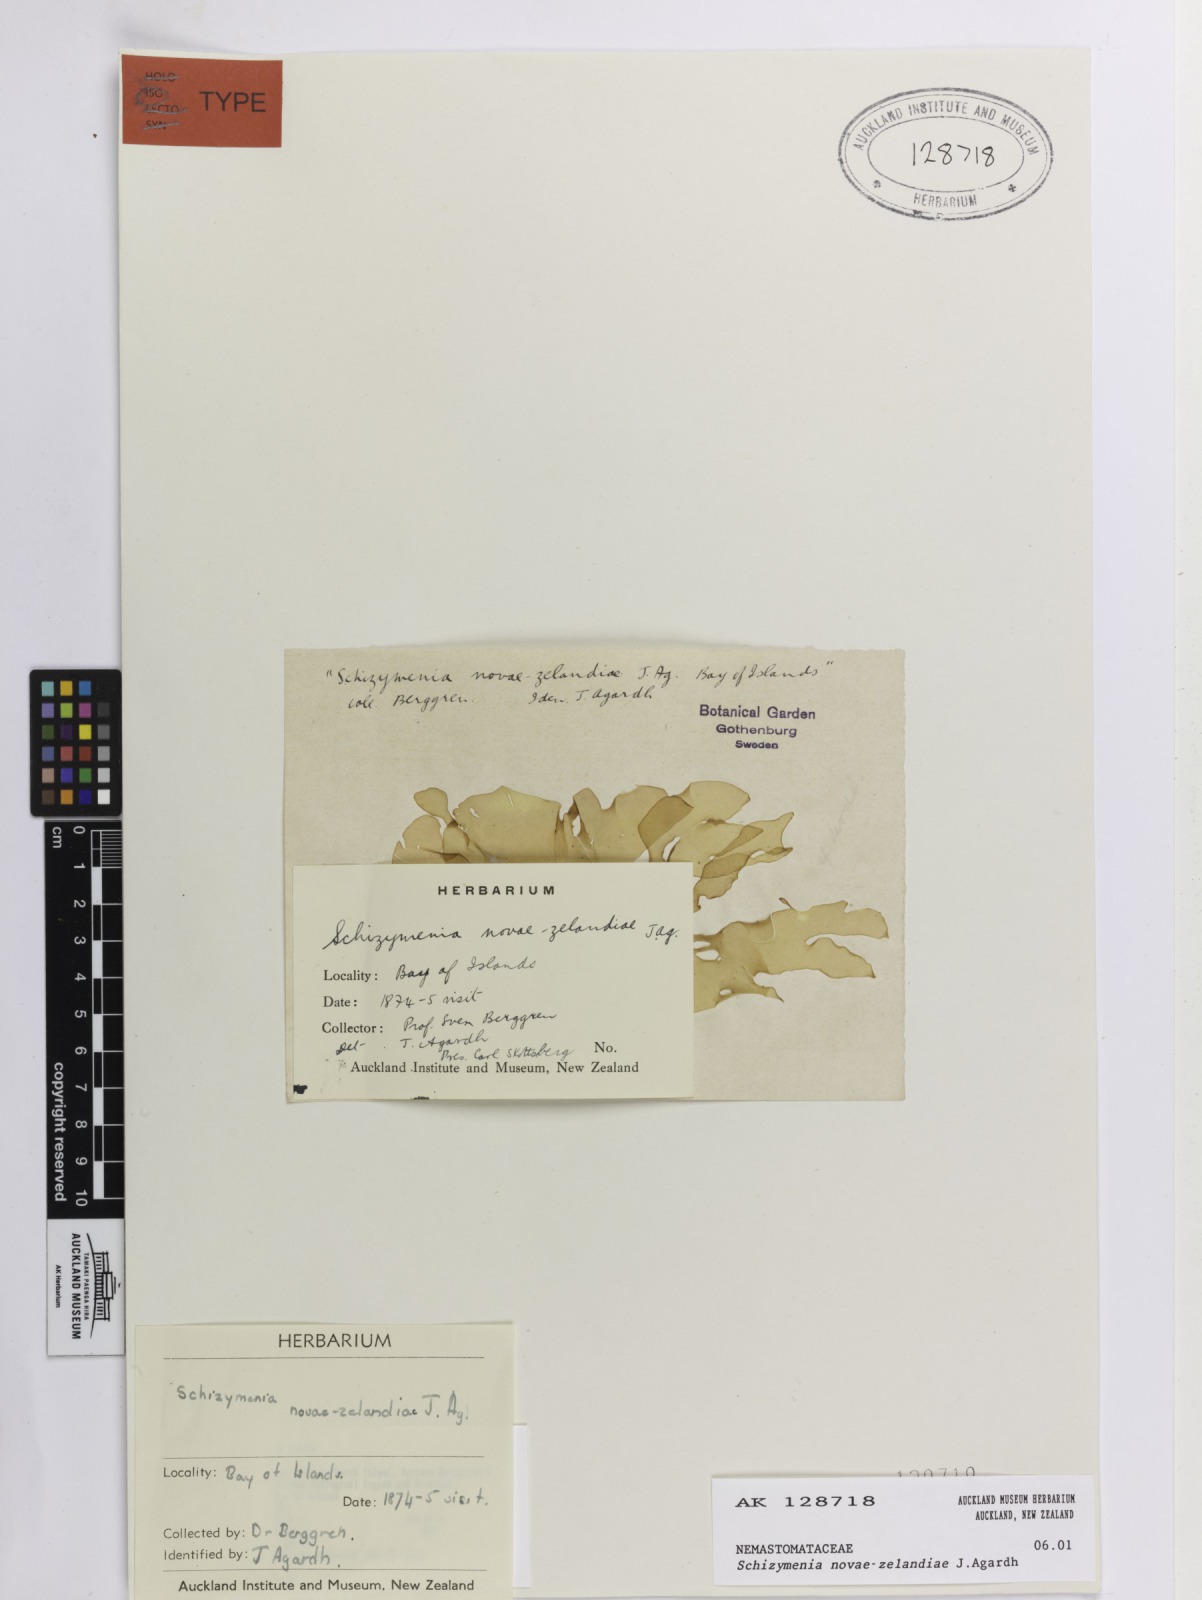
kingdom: Plantae
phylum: Rhodophyta
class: Florideophyceae
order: Nemastomatales
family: Schizymeniaceae
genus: Schizymenia
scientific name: Schizymenia novae-zelandiae
